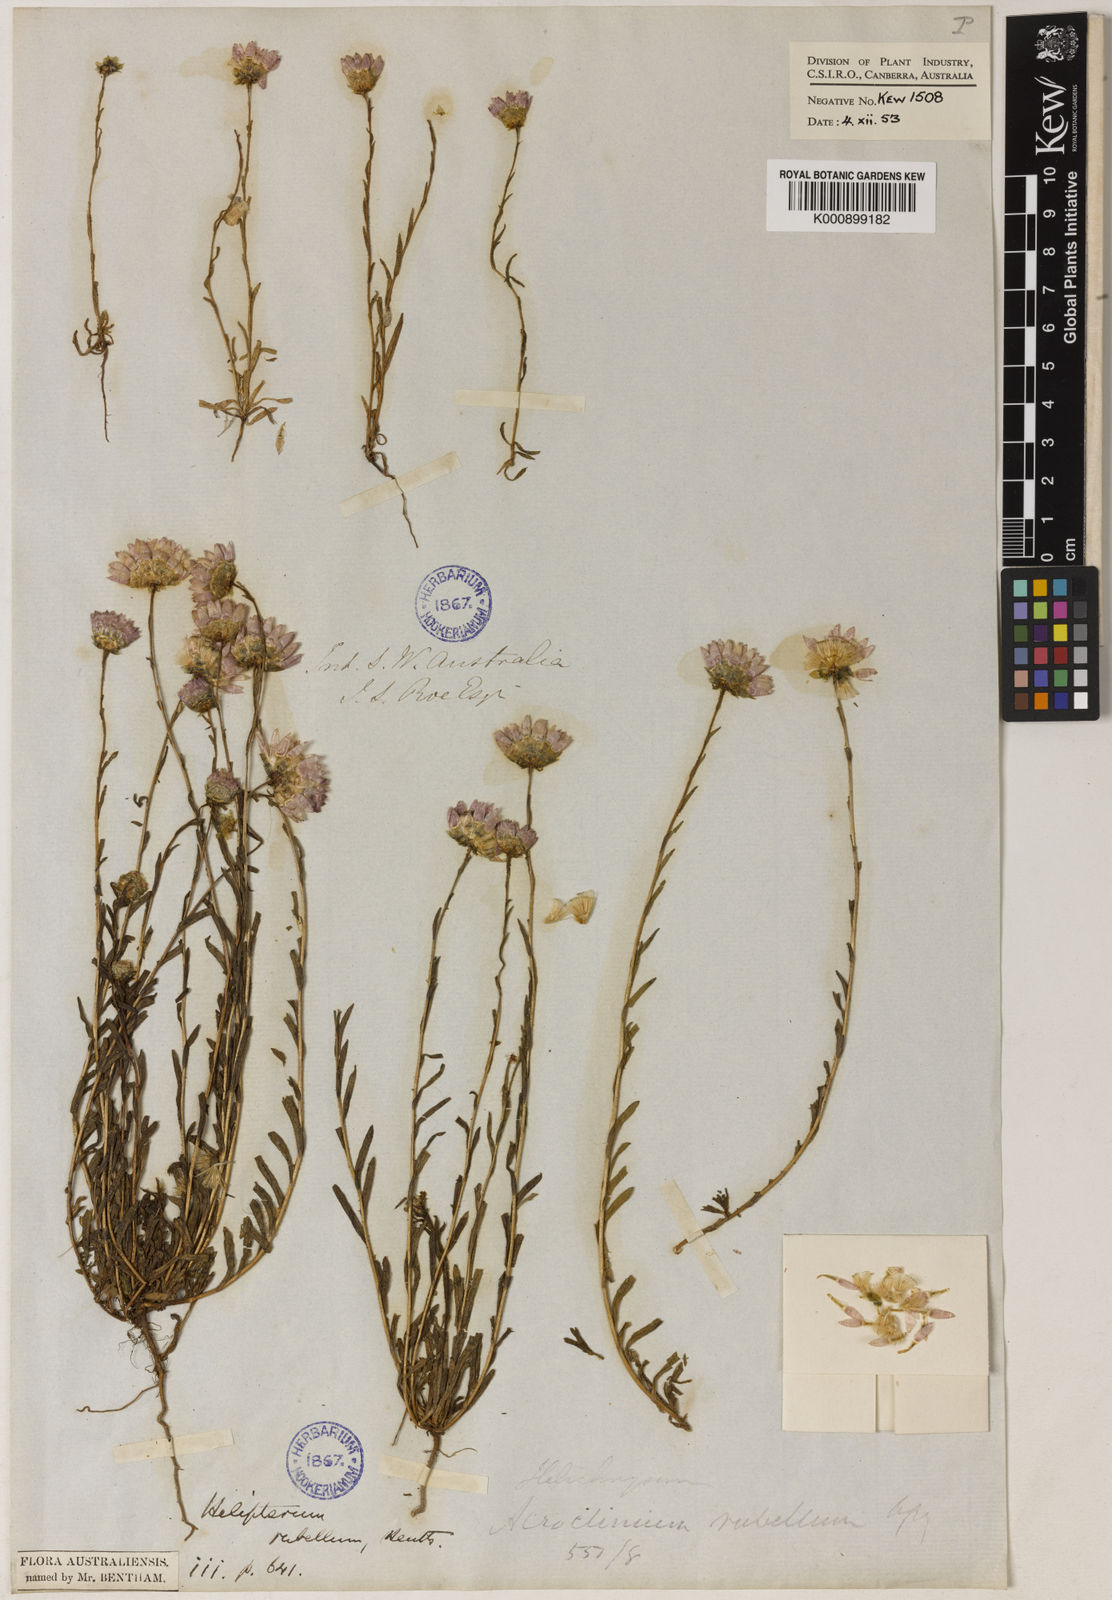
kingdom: Plantae
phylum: Tracheophyta
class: Magnoliopsida
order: Asterales
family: Asteraceae
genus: Rhodanthe
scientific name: Rhodanthe rubella
